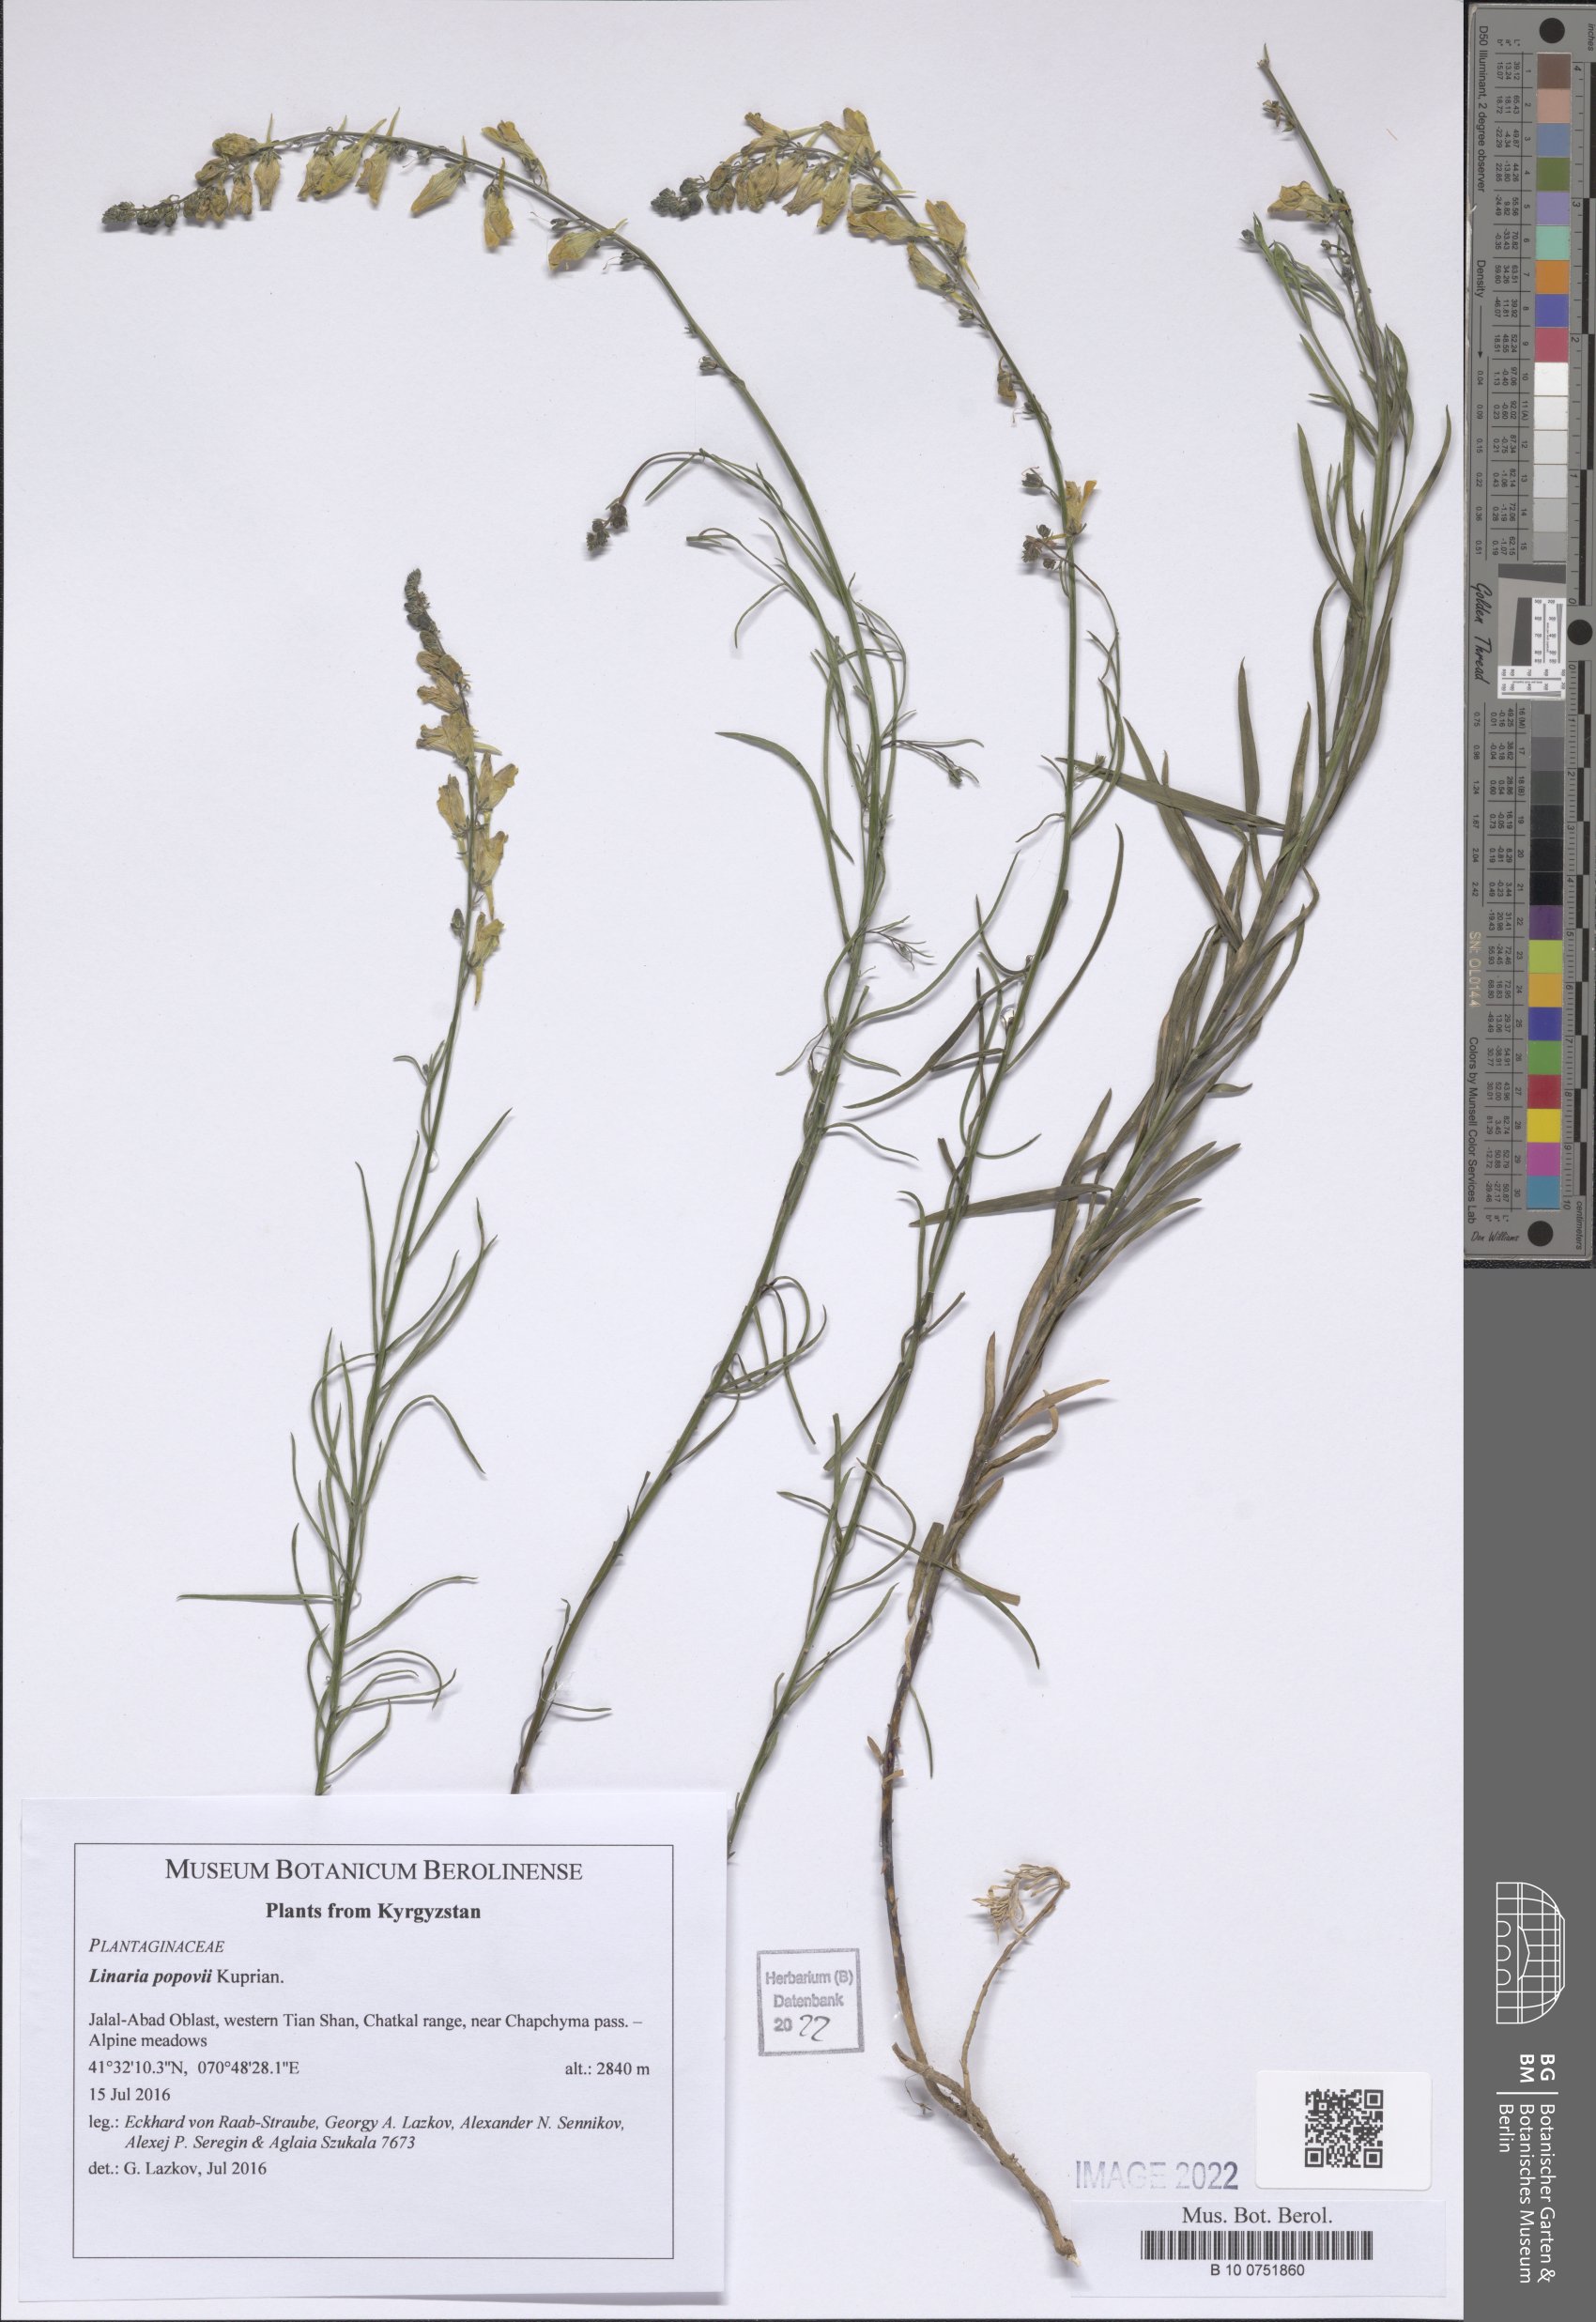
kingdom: Plantae
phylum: Tracheophyta
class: Magnoliopsida
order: Lamiales
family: Plantaginaceae
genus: Linaria
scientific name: Linaria popovii
